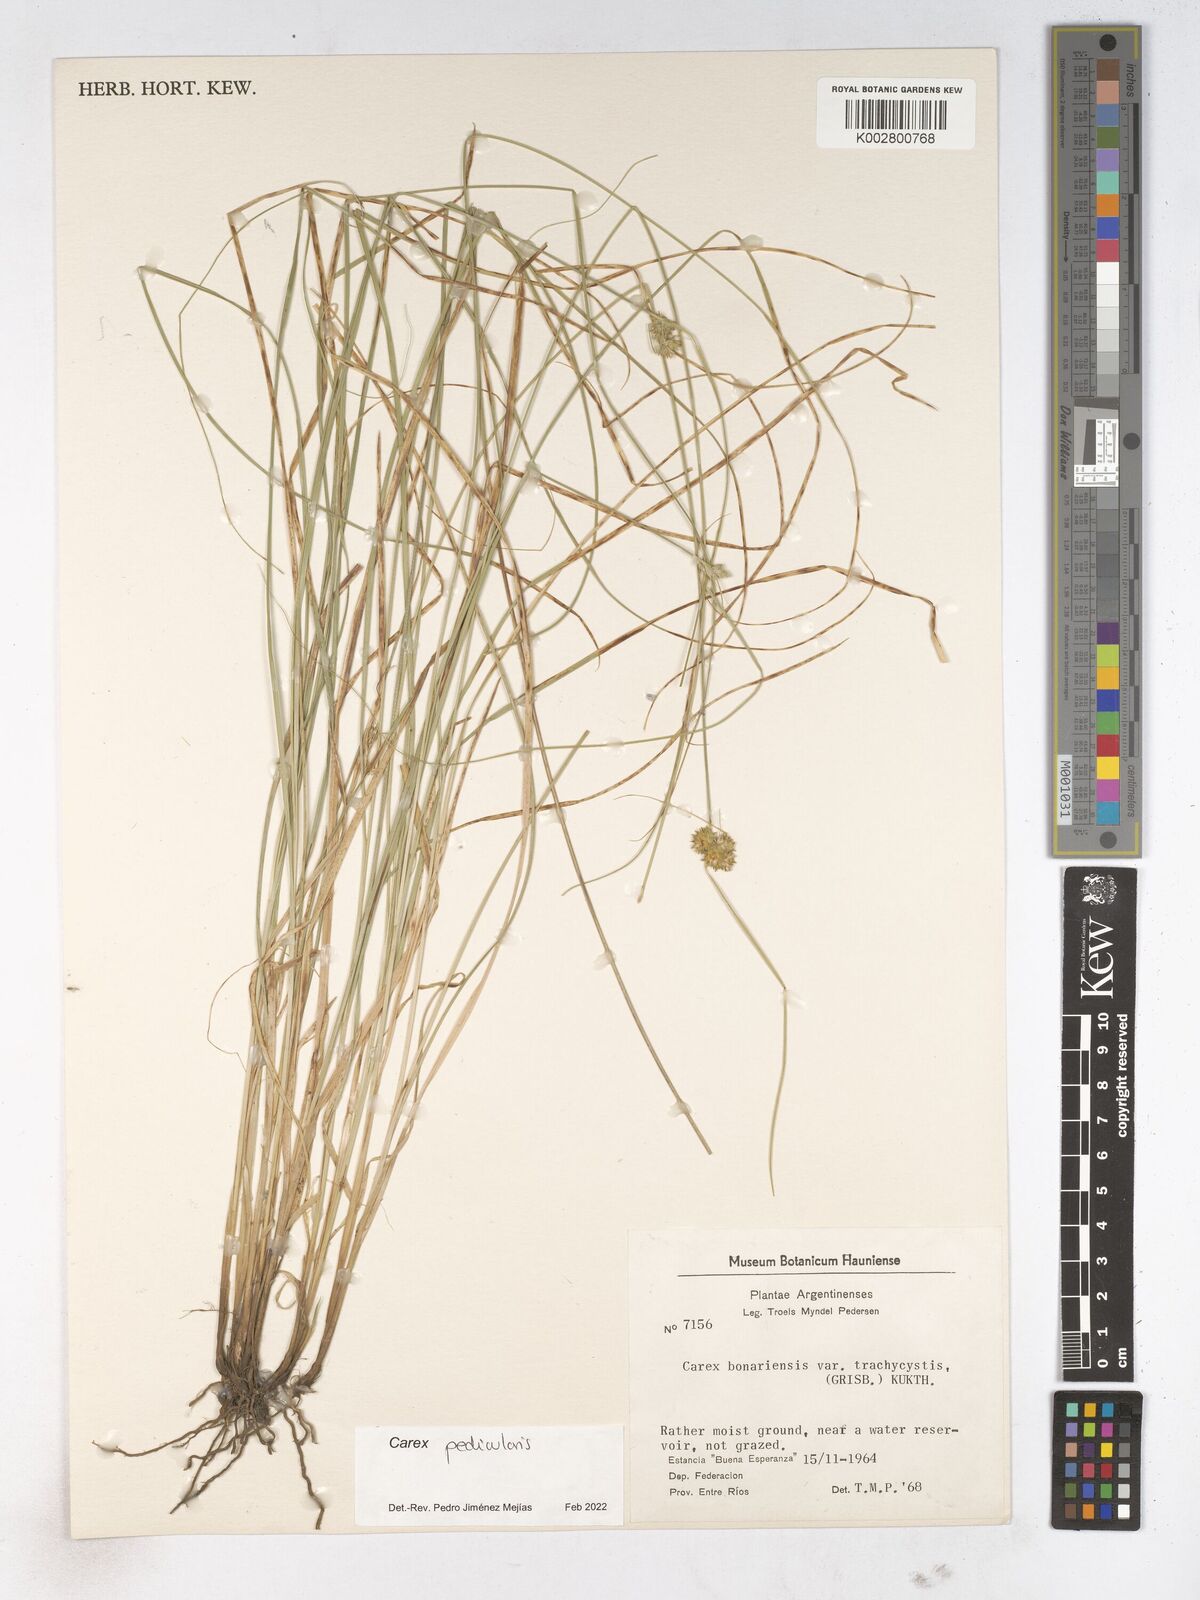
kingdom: Plantae
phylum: Tracheophyta
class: Liliopsida
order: Poales
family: Cyperaceae
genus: Carex
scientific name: Carex bonariensis
